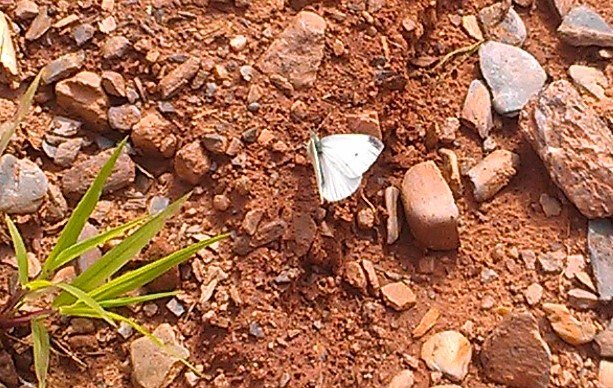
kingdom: Animalia
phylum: Arthropoda
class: Insecta
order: Lepidoptera
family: Pieridae
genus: Pieris
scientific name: Pieris rapae
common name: Cabbage White
